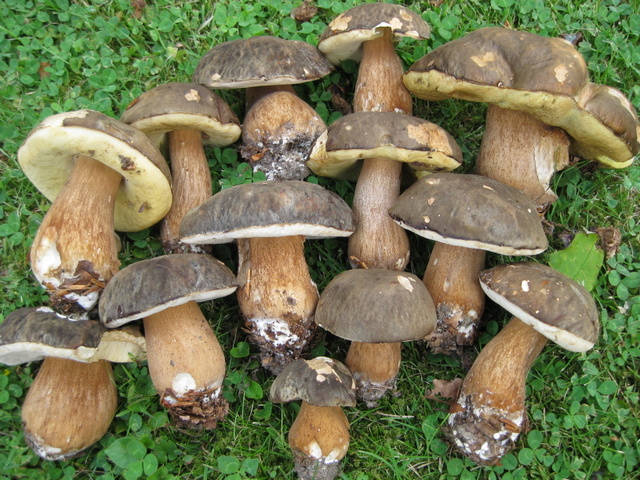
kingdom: Fungi
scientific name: Fungi
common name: bronze-rørhat
